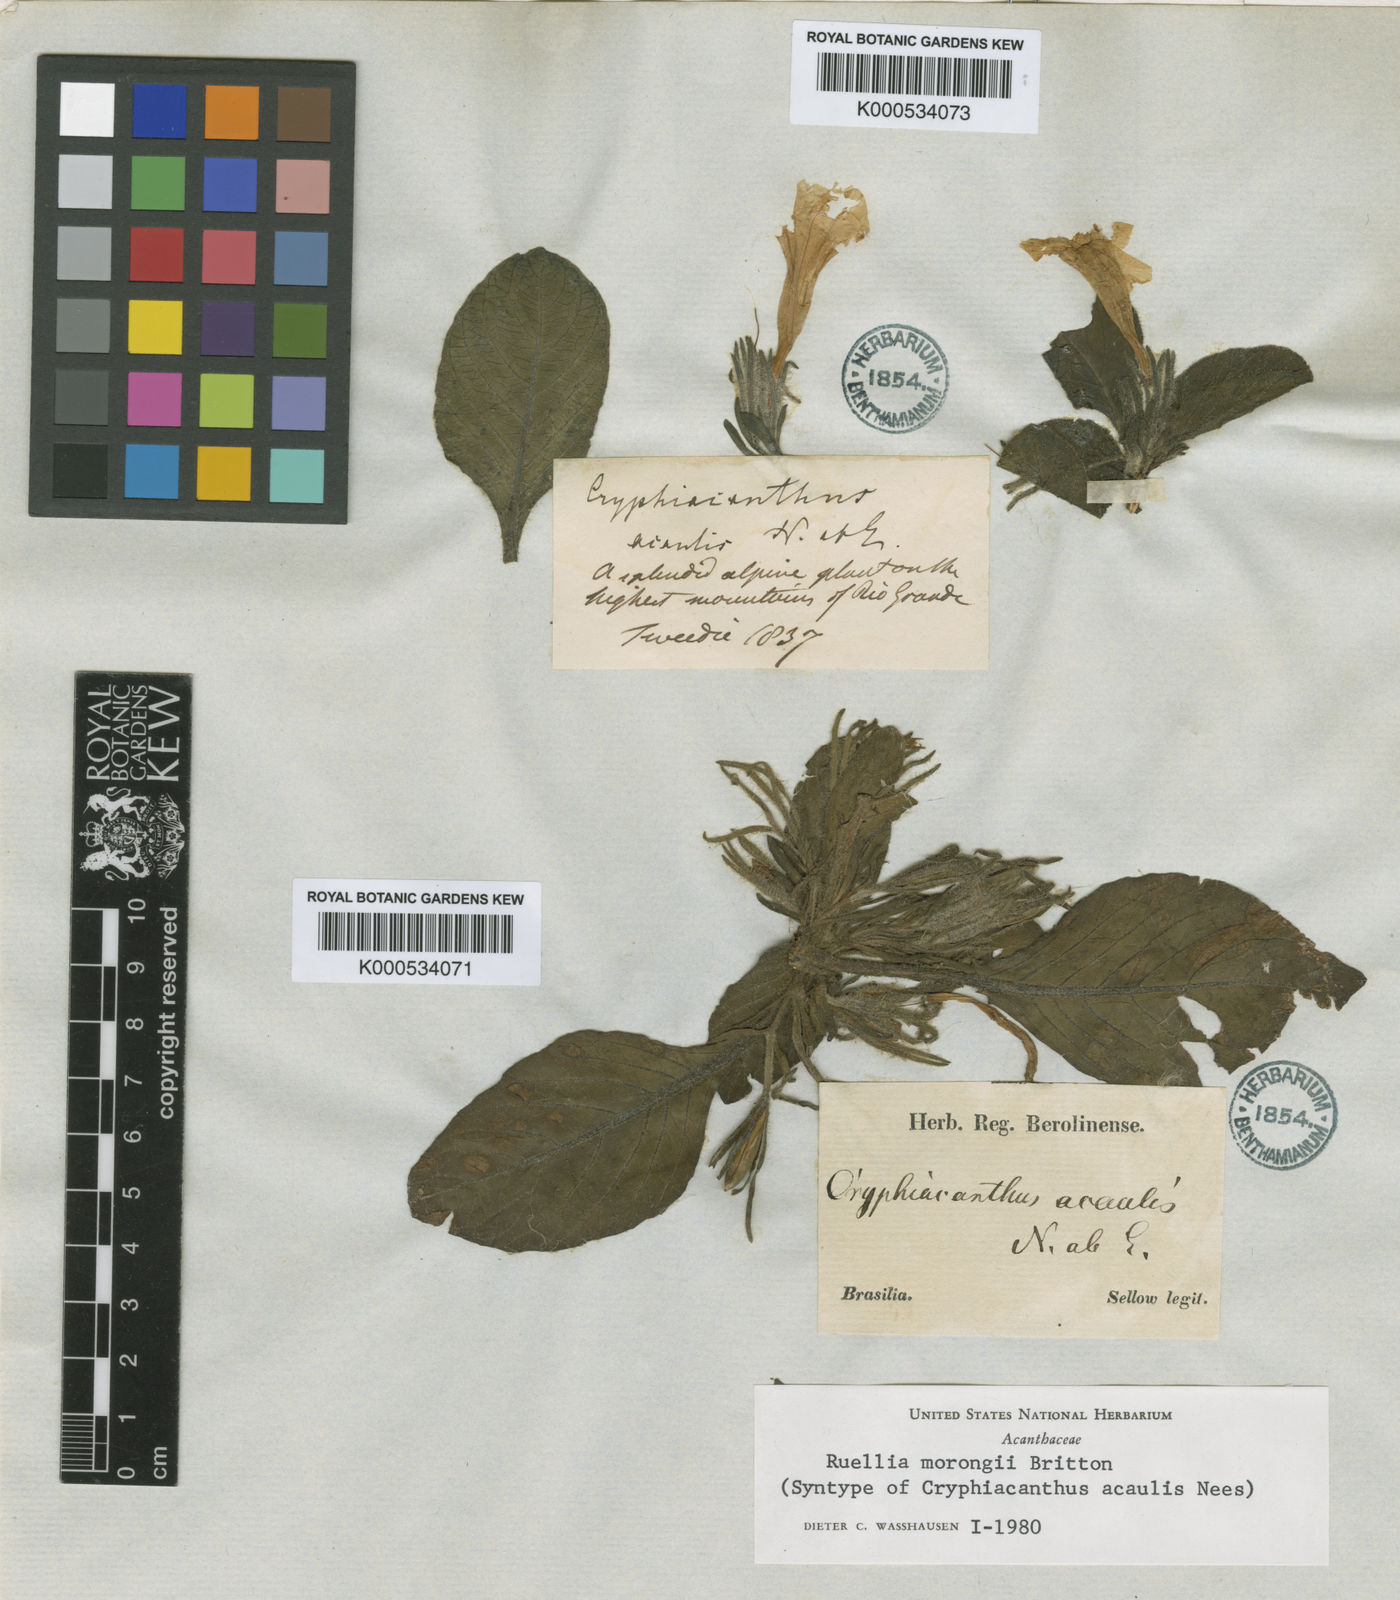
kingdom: Plantae
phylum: Tracheophyta
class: Magnoliopsida
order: Lamiales
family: Acanthaceae
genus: Ruellia
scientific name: Ruellia morongii
